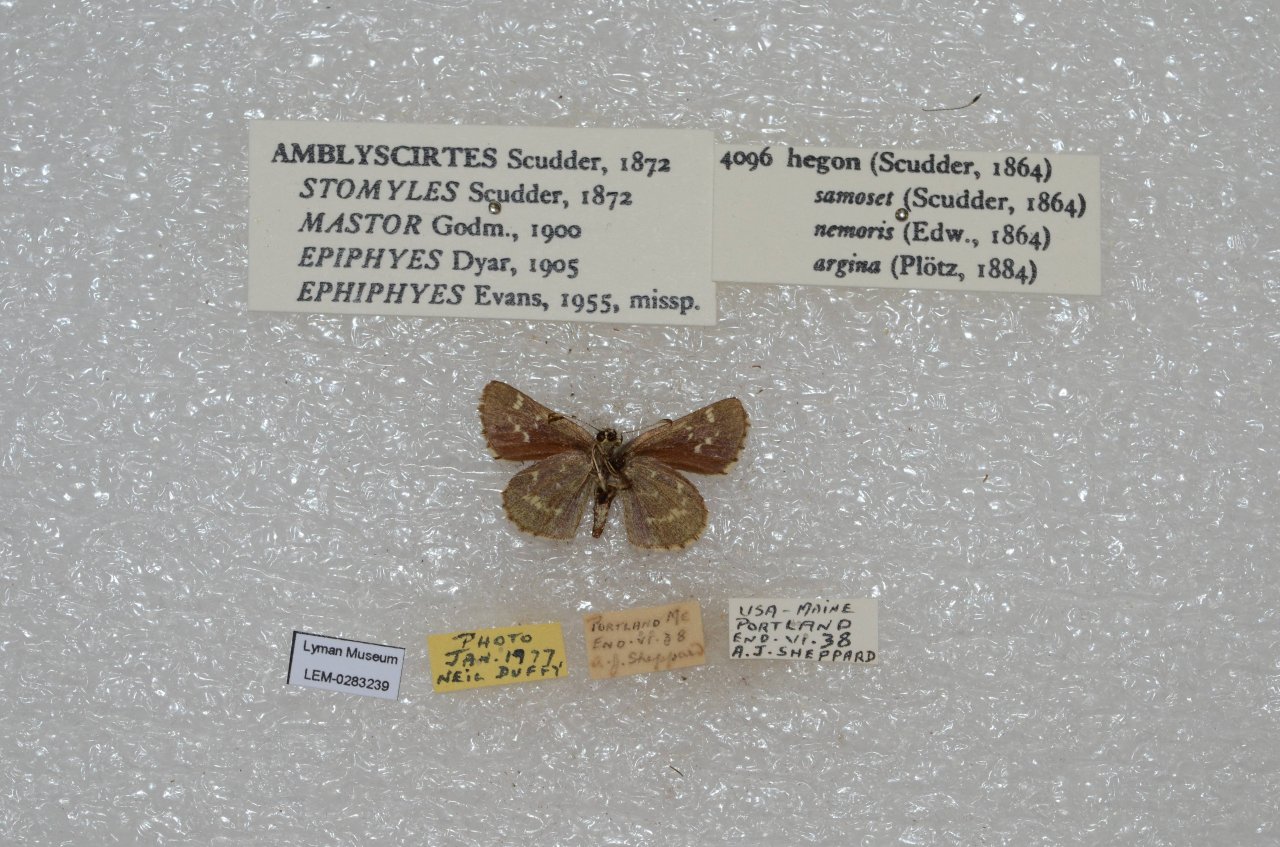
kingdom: Animalia
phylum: Arthropoda
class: Insecta
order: Lepidoptera
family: Hesperiidae
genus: Mastor
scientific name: Mastor hegon
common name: Pepper and Salt Skipper
